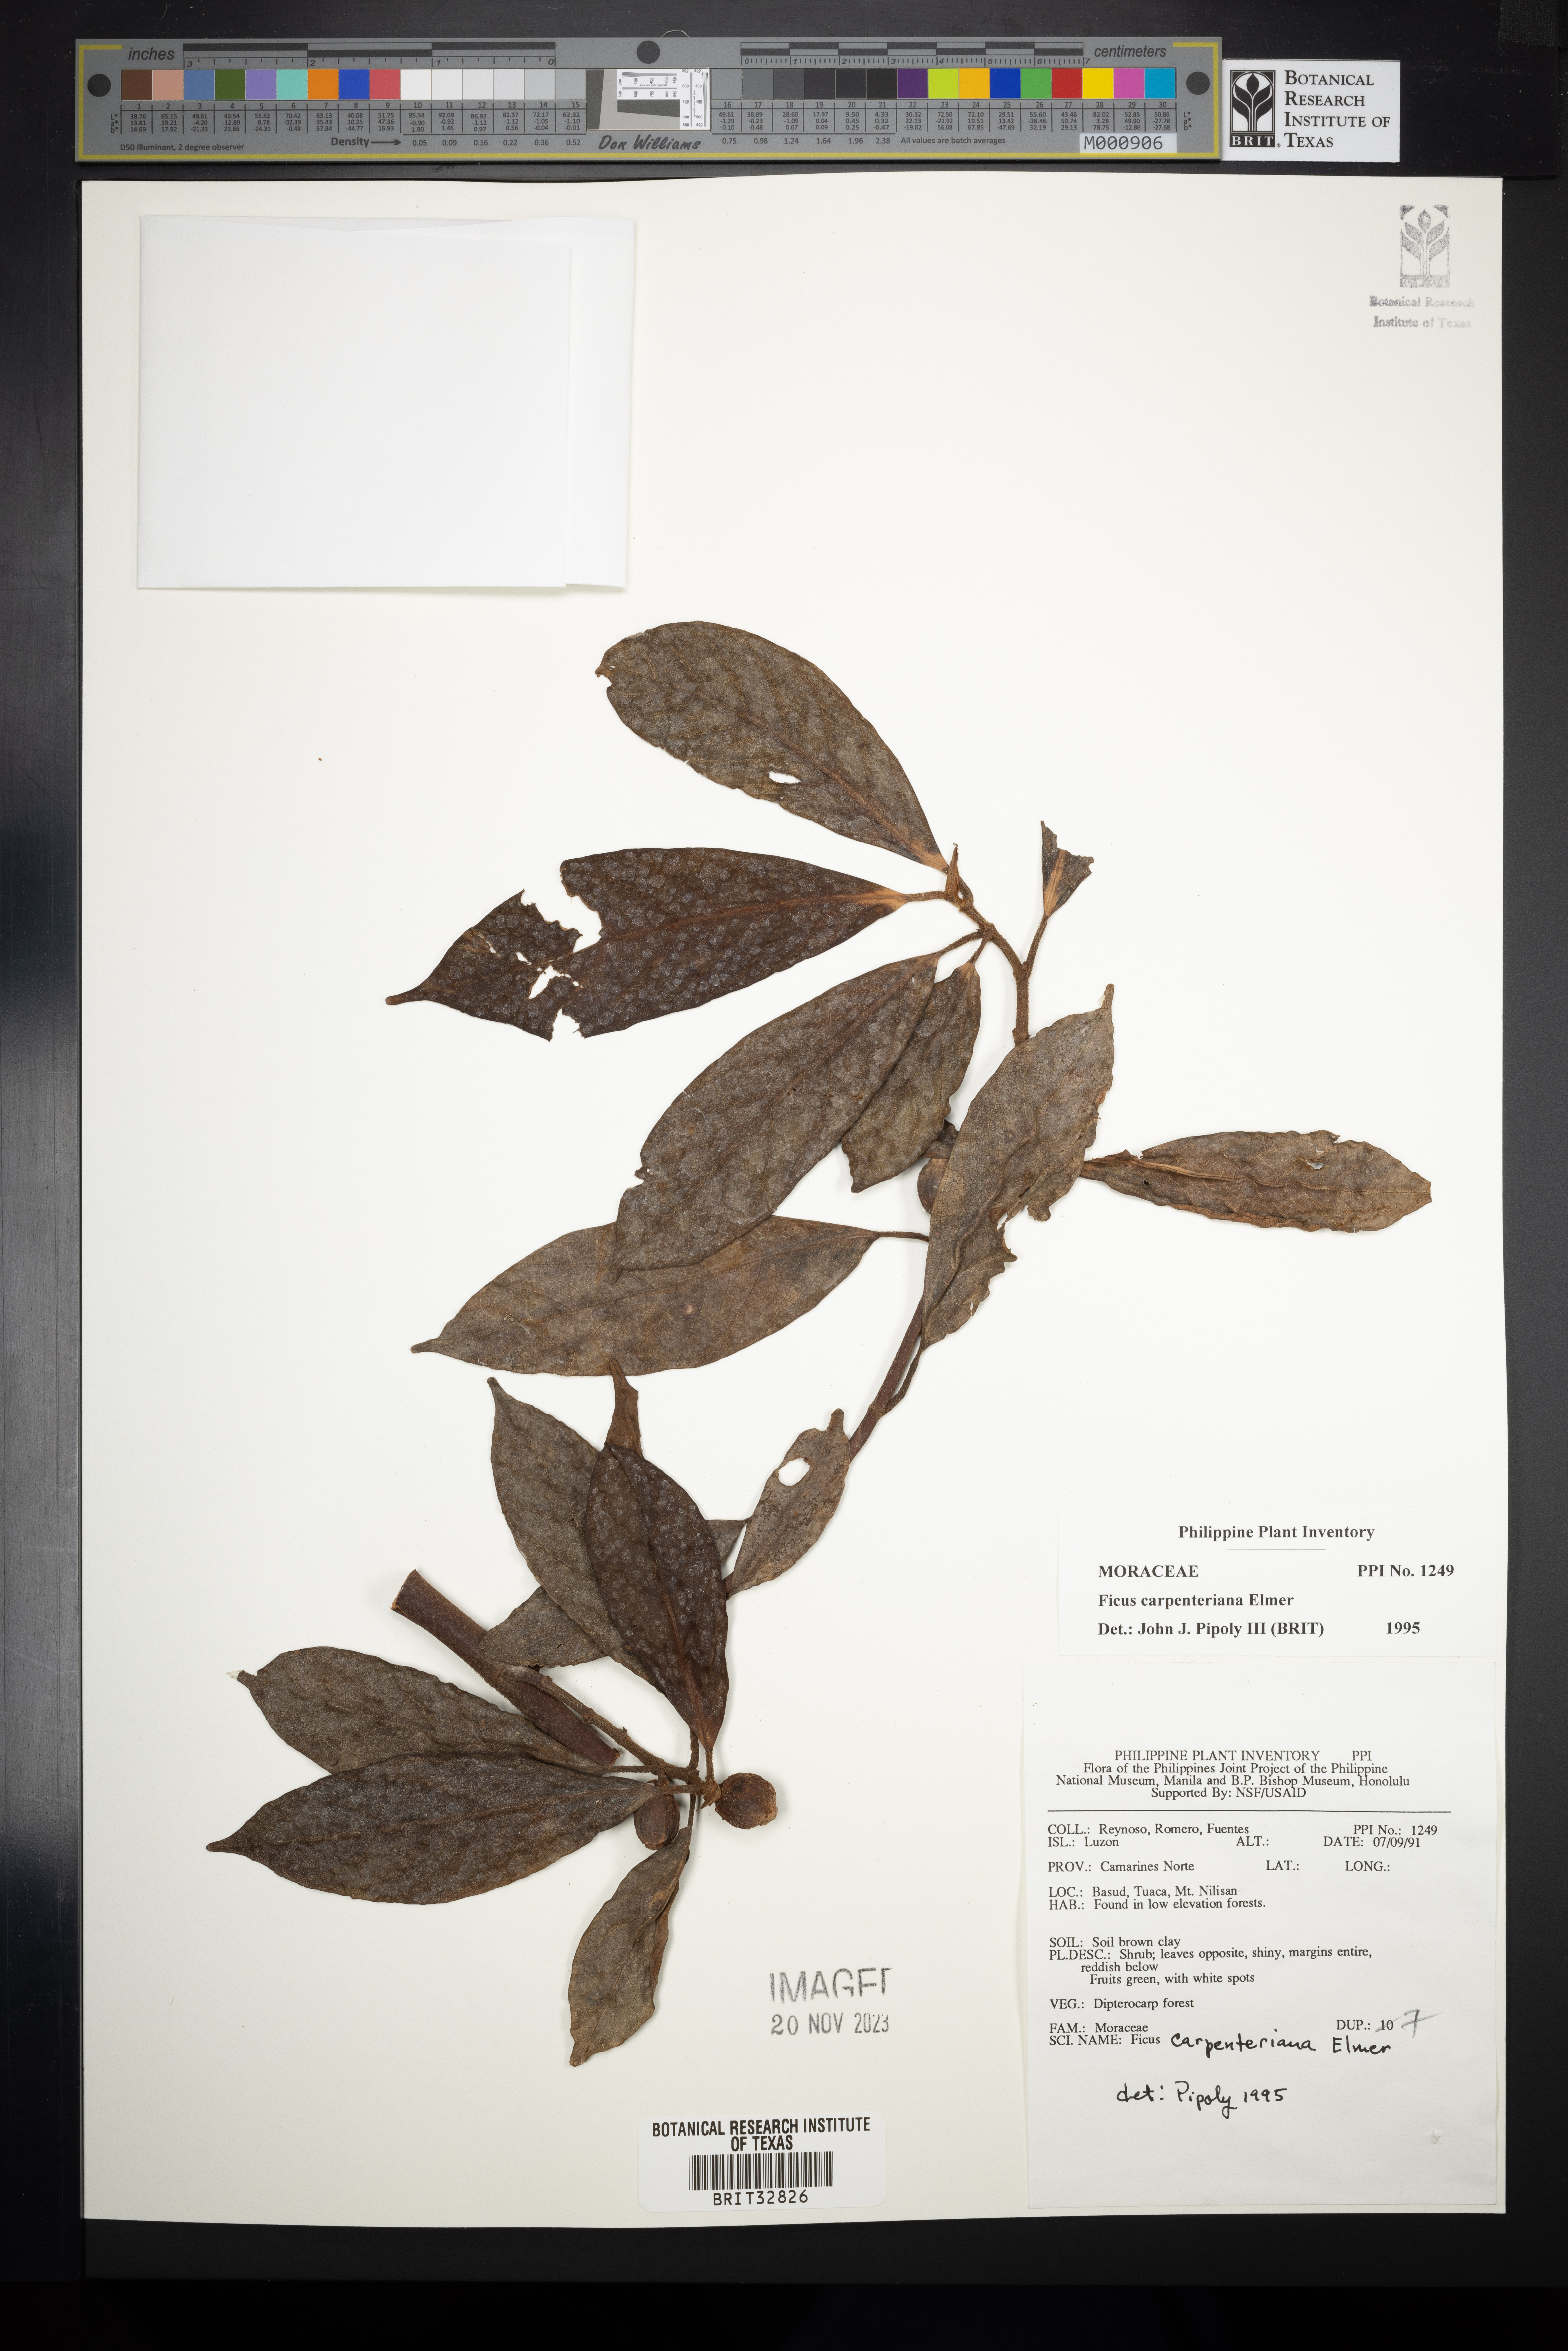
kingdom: Plantae
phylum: Tracheophyta
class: Magnoliopsida
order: Rosales
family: Moraceae
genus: Ficus
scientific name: Ficus carpenteriana
